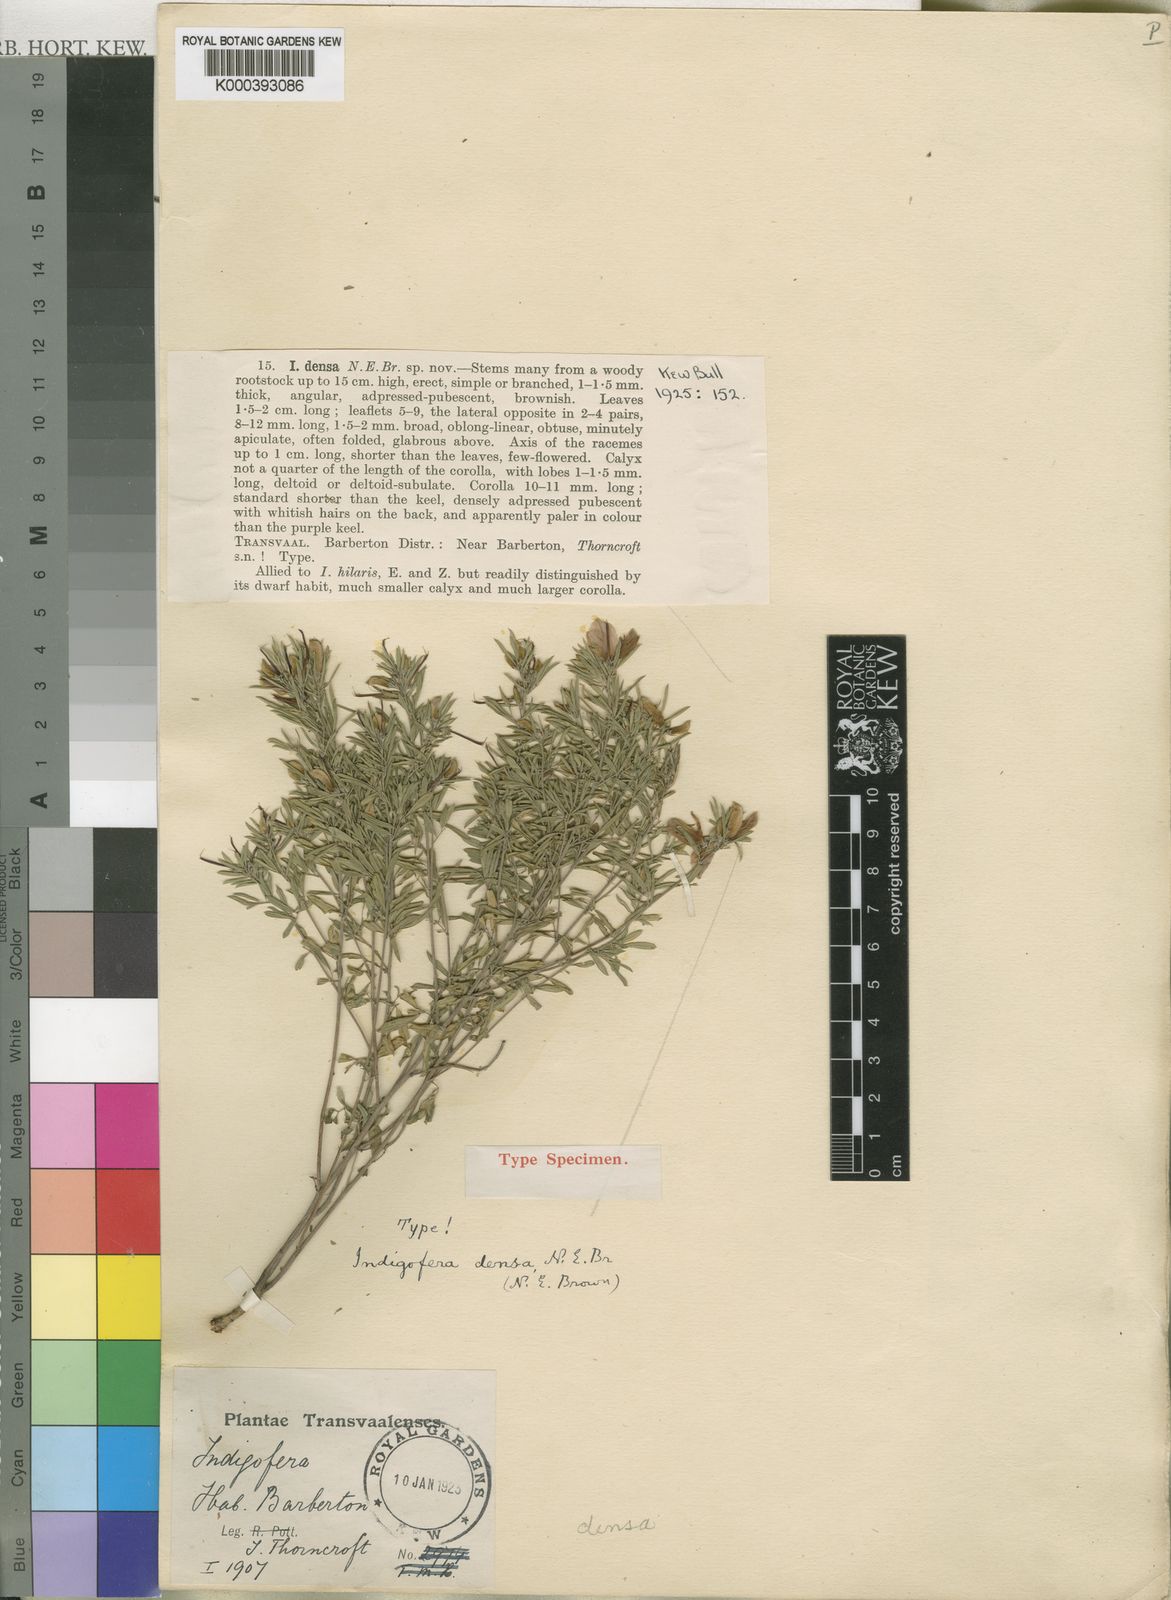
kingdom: Plantae
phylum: Tracheophyta
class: Magnoliopsida
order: Fabales
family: Fabaceae
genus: Indigofera
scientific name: Indigofera densa
